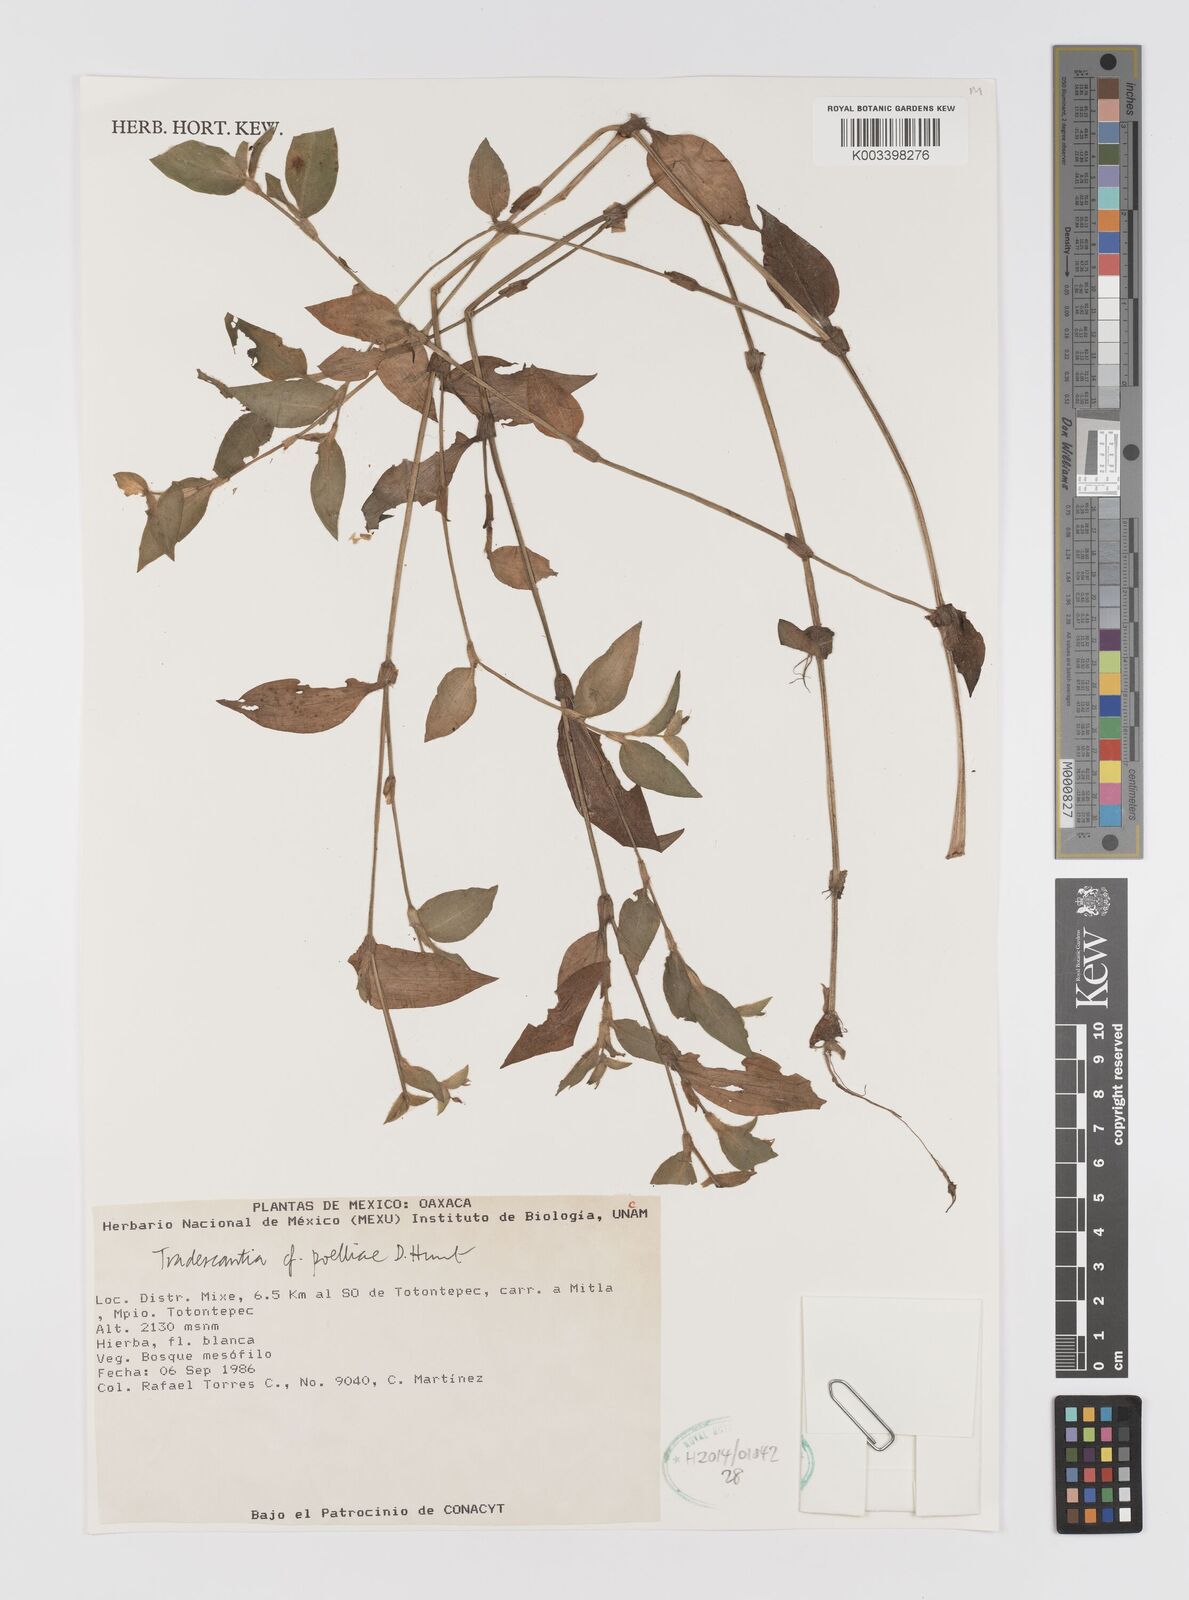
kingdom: Plantae
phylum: Tracheophyta
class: Liliopsida
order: Commelinales
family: Commelinaceae
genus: Tradescantia
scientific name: Tradescantia poelliae
